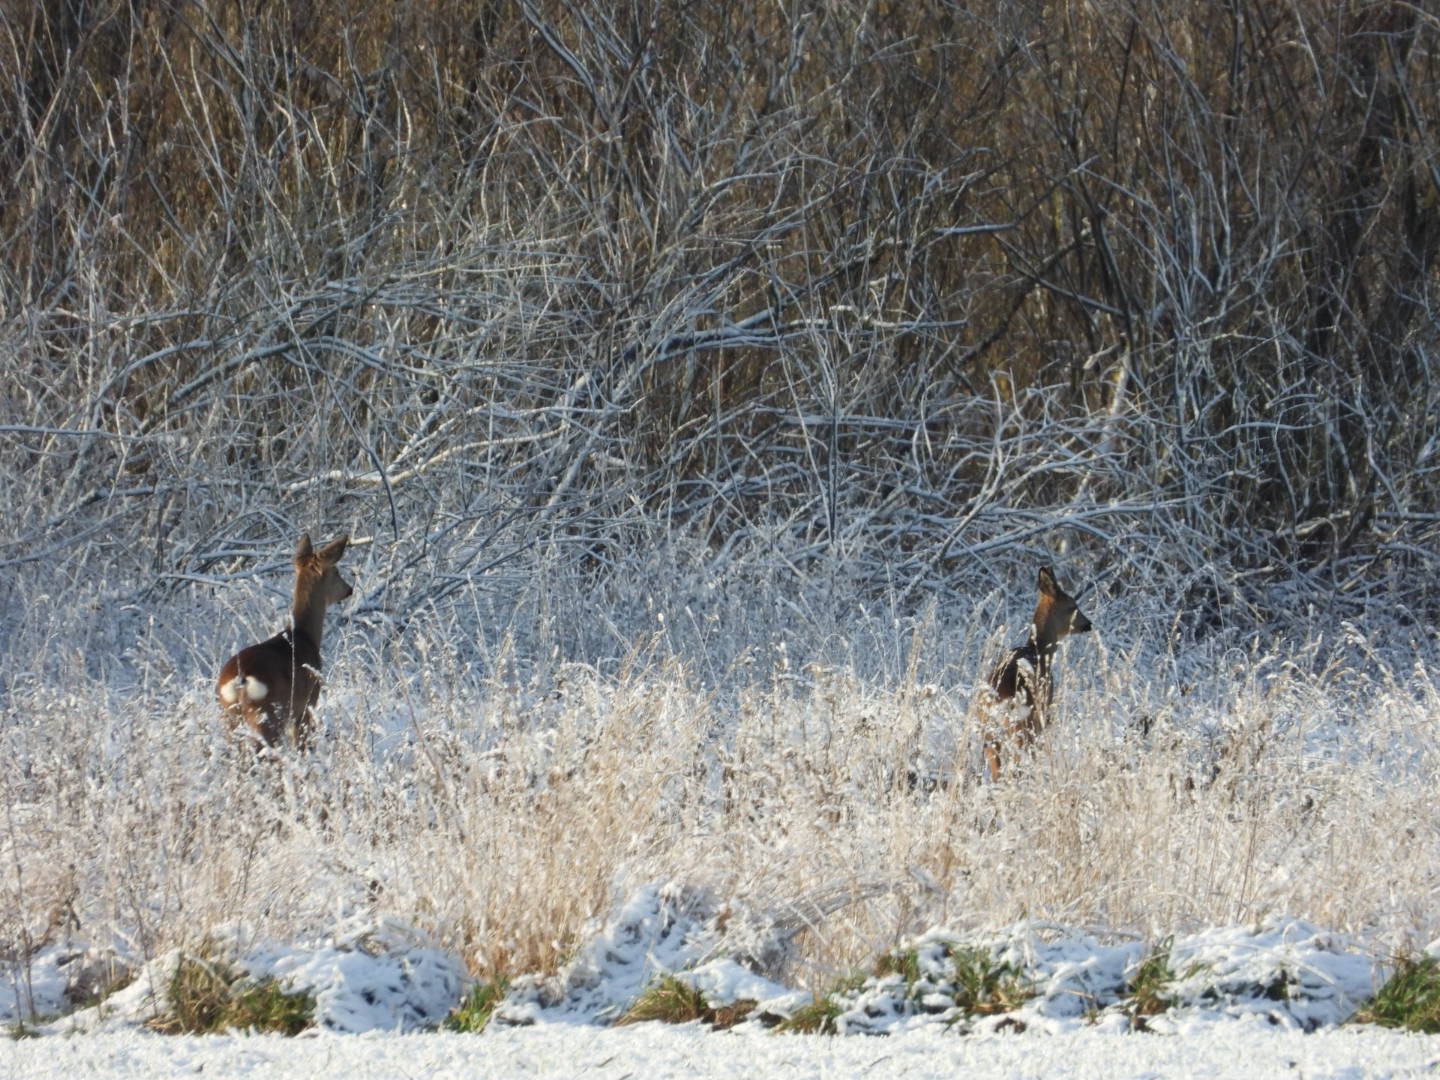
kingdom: Animalia
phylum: Chordata
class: Mammalia
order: Artiodactyla
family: Cervidae
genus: Capreolus
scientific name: Capreolus capreolus
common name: Rådyr
